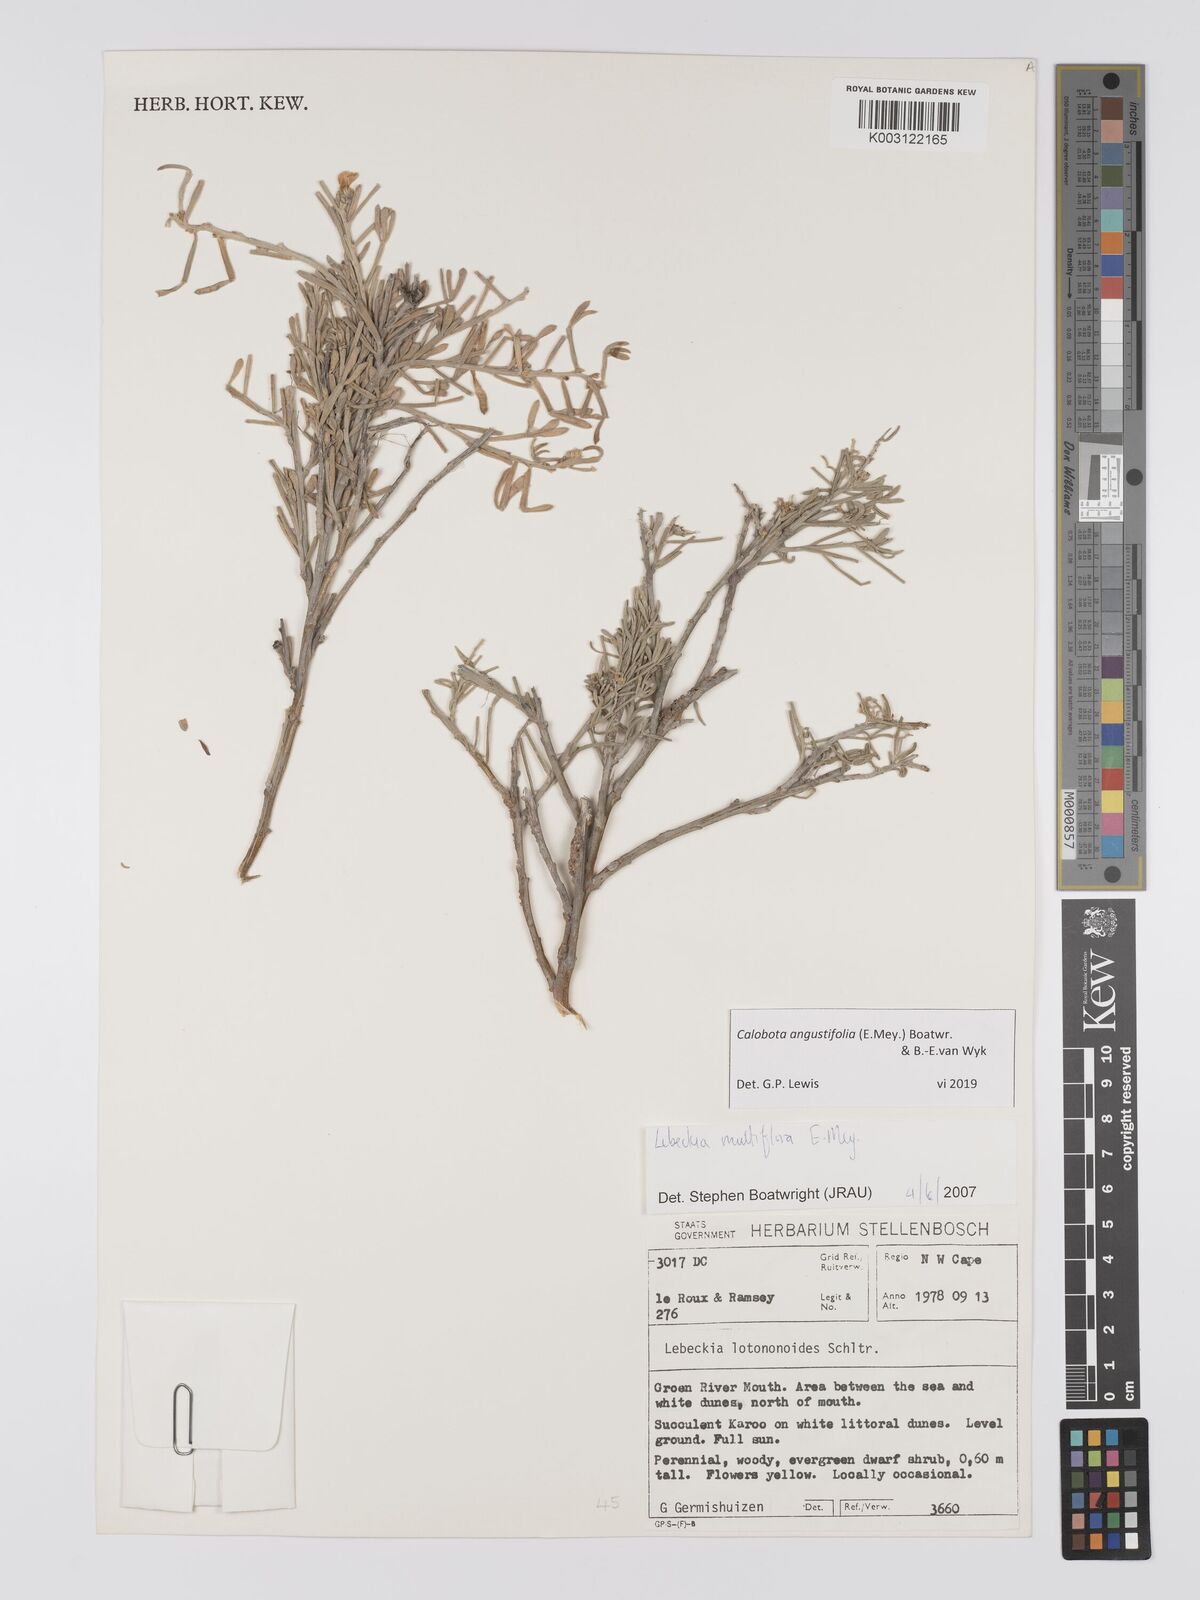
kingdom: Plantae
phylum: Tracheophyta
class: Magnoliopsida
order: Fabales
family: Fabaceae
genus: Calobota
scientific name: Calobota angustifolia
